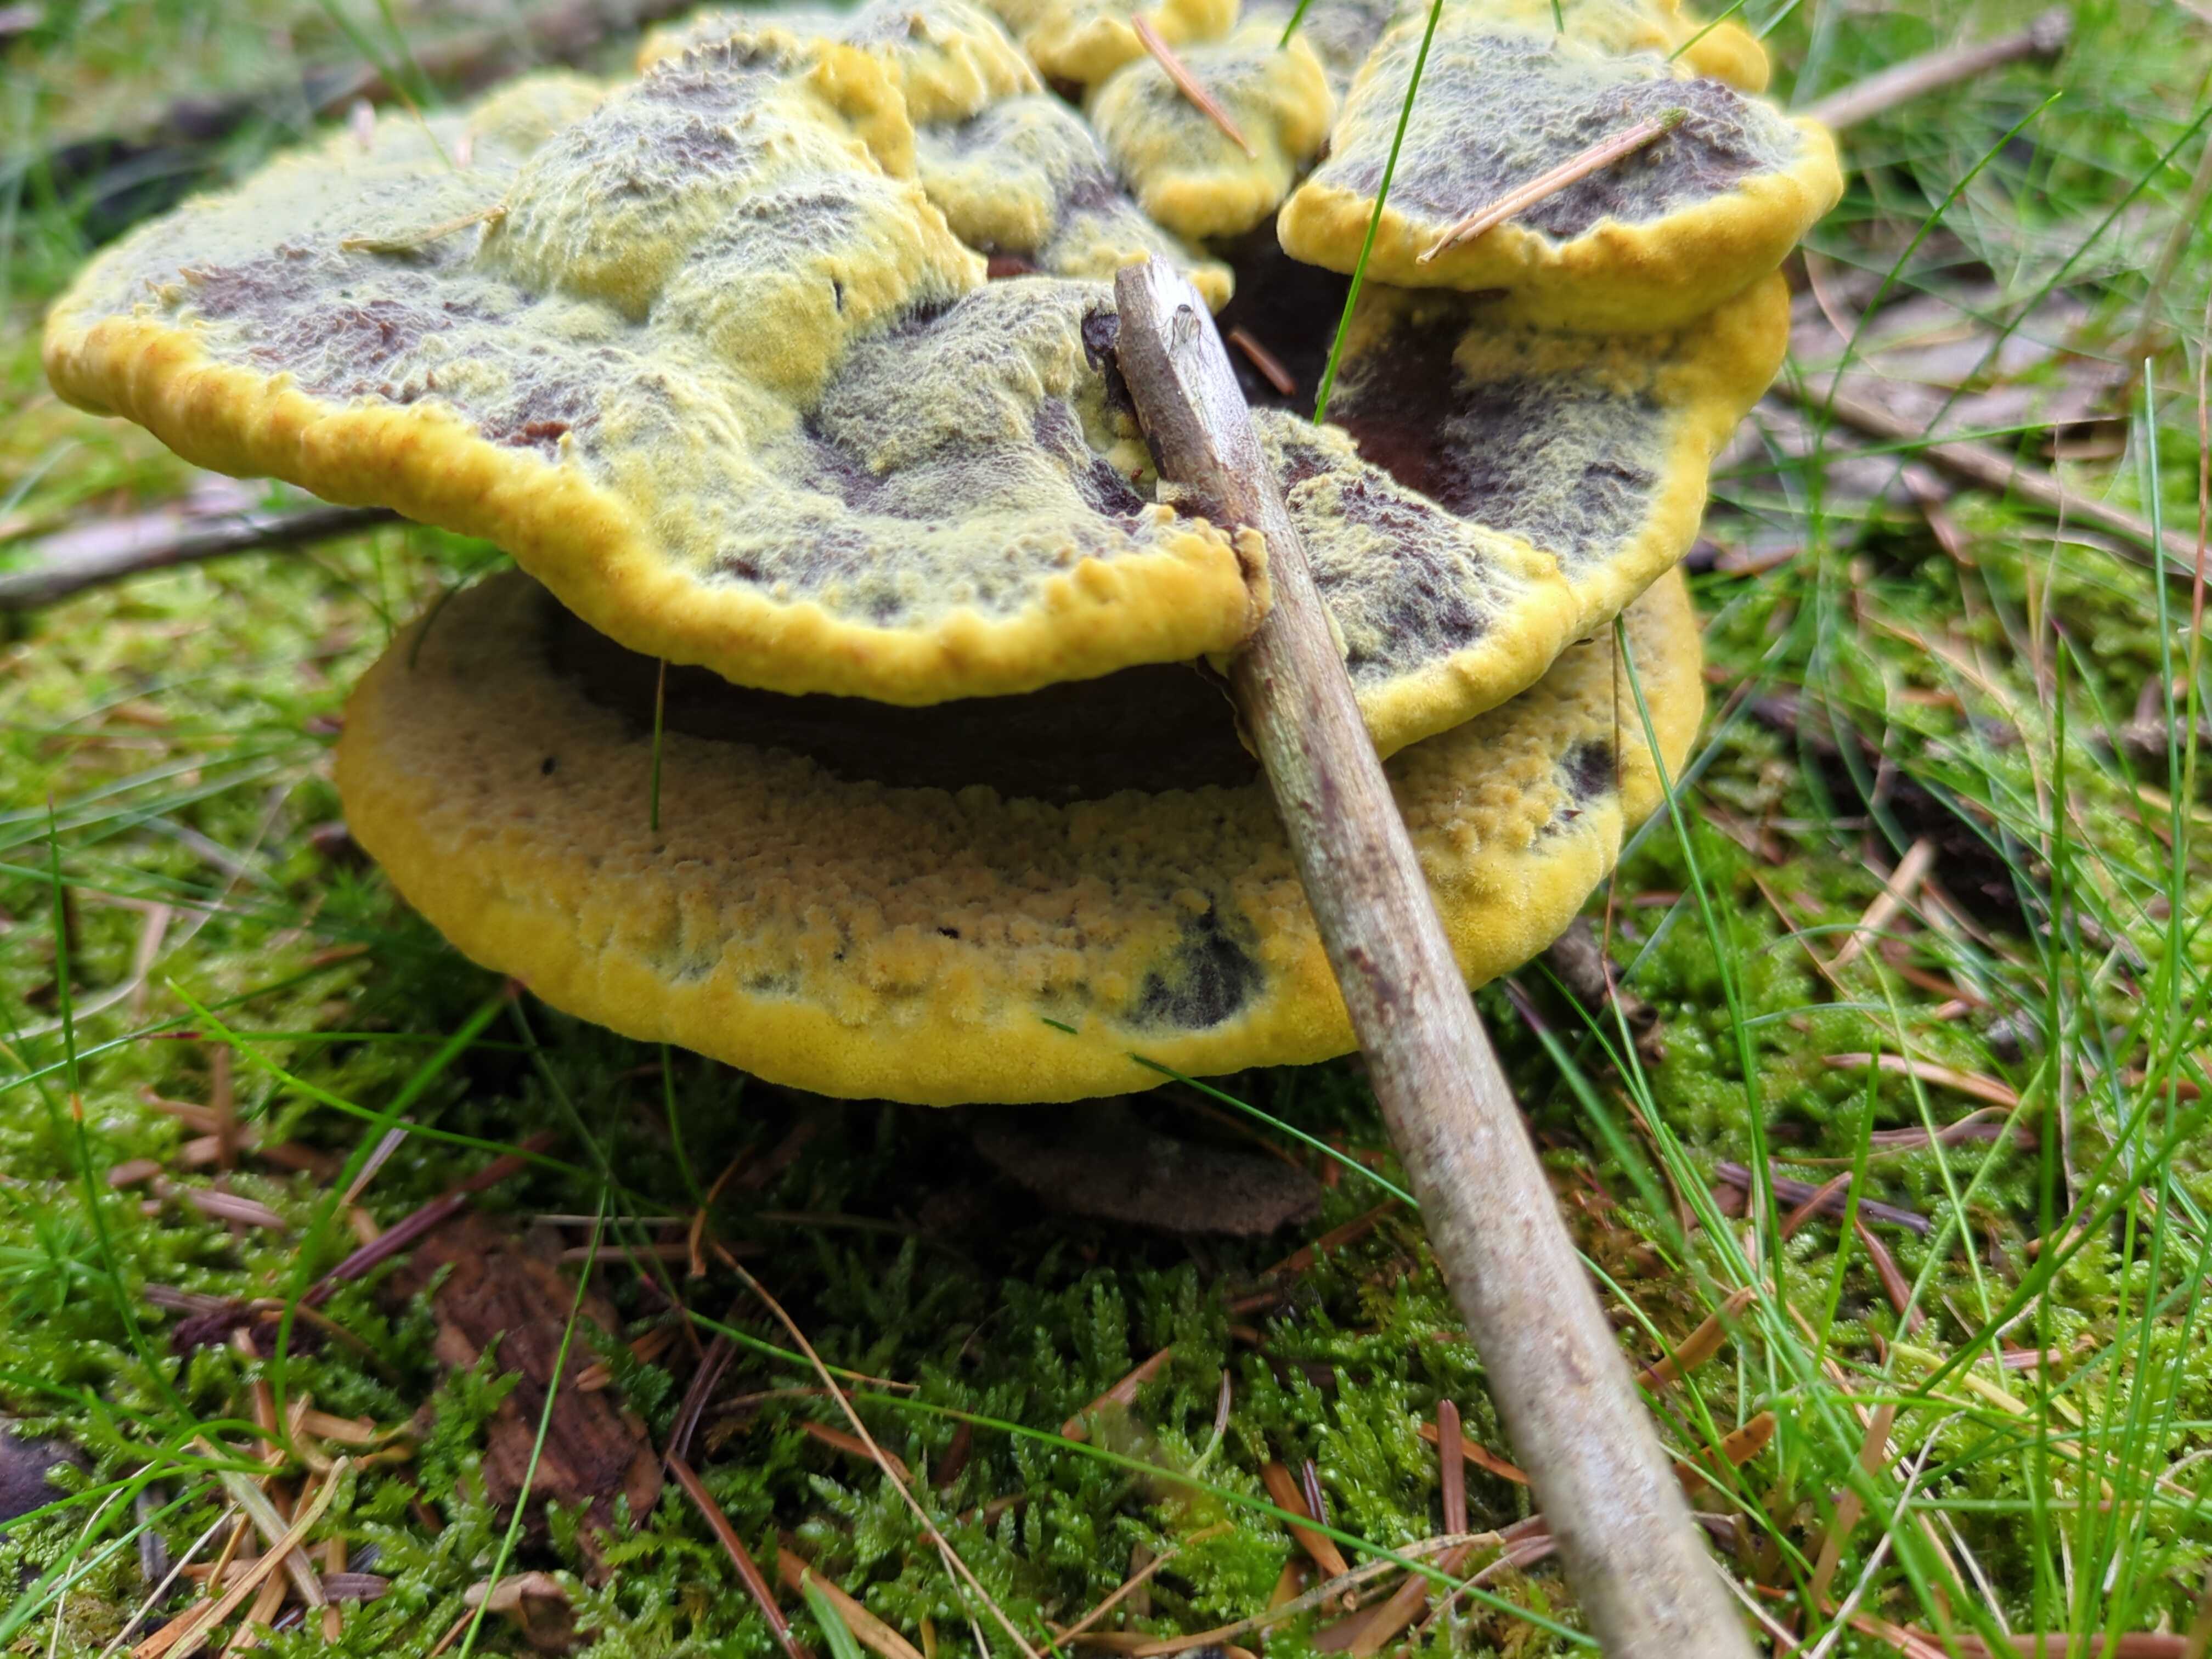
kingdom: Fungi
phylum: Basidiomycota
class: Agaricomycetes
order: Polyporales
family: Laetiporaceae
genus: Phaeolus
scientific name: Phaeolus schweinitzii
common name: brunporesvamp
